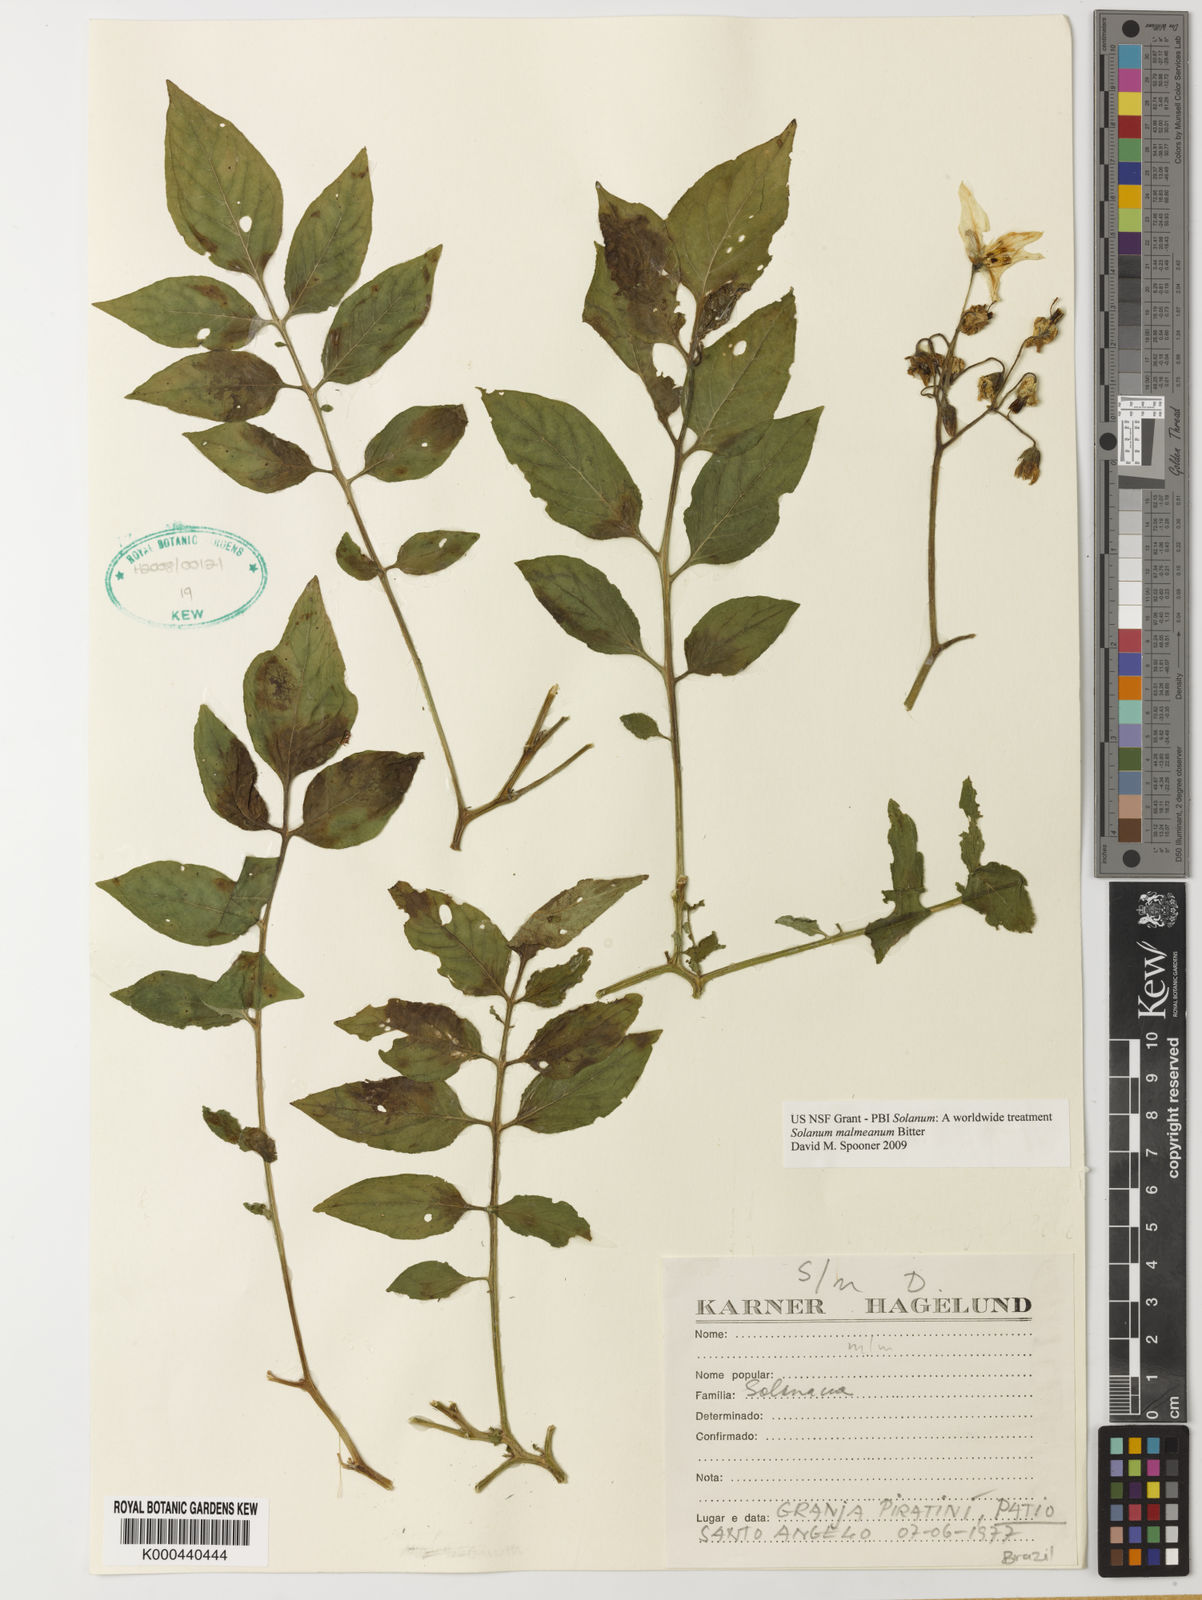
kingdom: Plantae
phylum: Tracheophyta
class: Magnoliopsida
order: Solanales
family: Solanaceae
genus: Solanum
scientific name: Solanum malmeanum
